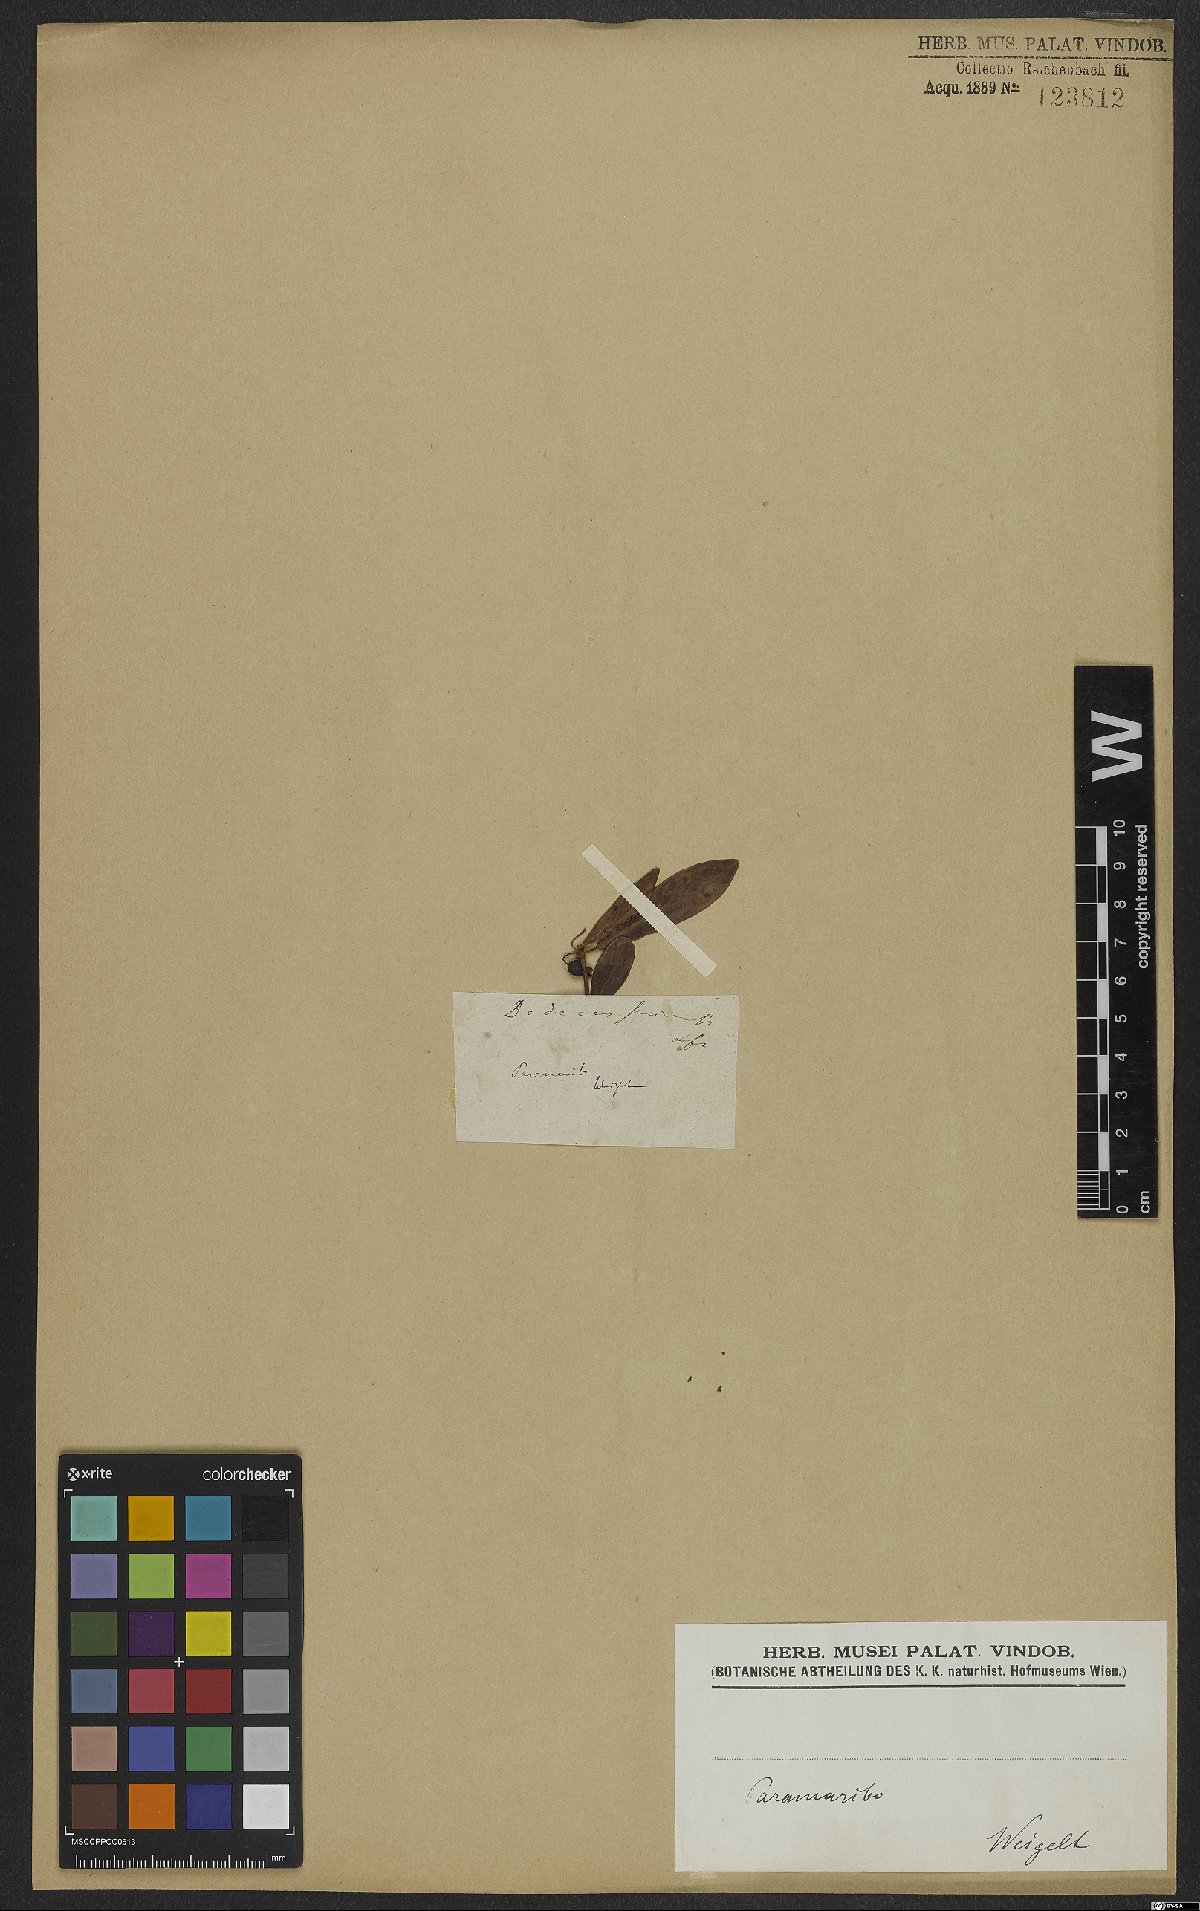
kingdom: Plantae
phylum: Tracheophyta
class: Magnoliopsida
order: Myrtales
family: Lythraceae
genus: Ammannia
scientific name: Ammannia maritima
